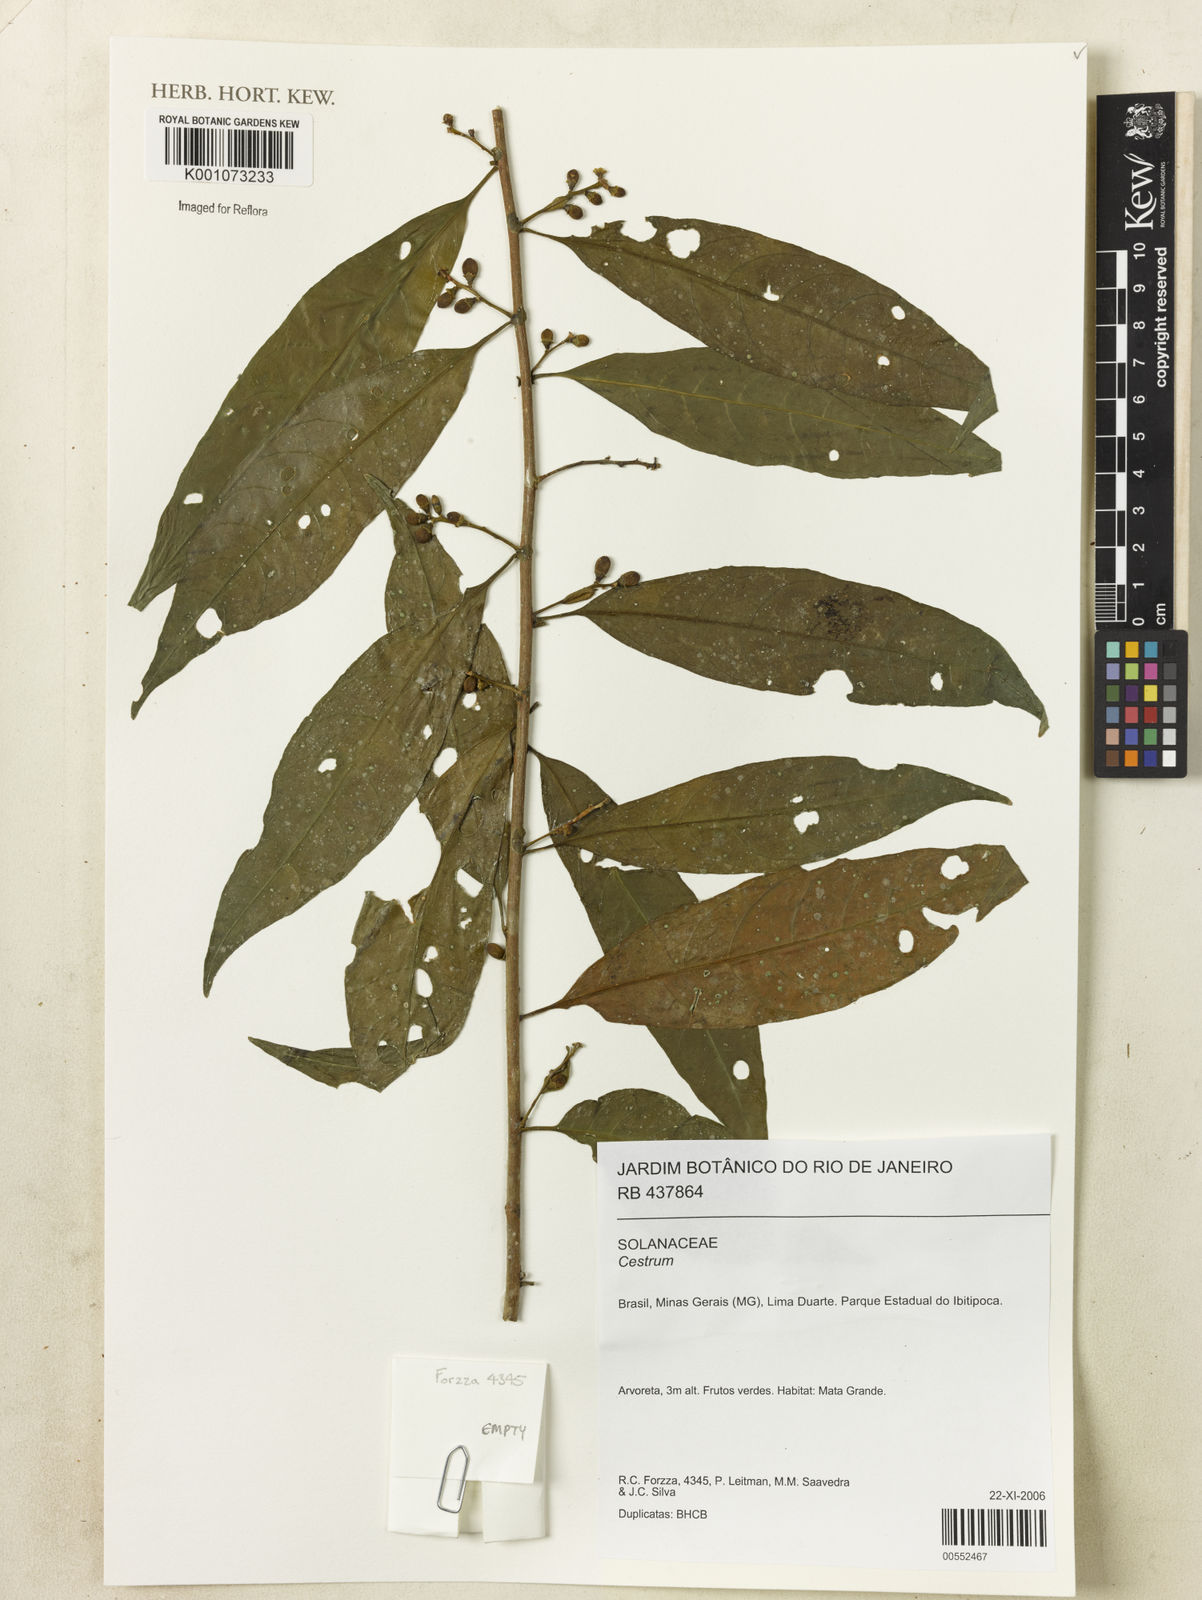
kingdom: Plantae
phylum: Tracheophyta
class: Magnoliopsida
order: Solanales
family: Solanaceae
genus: Cestrum
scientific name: Cestrum
